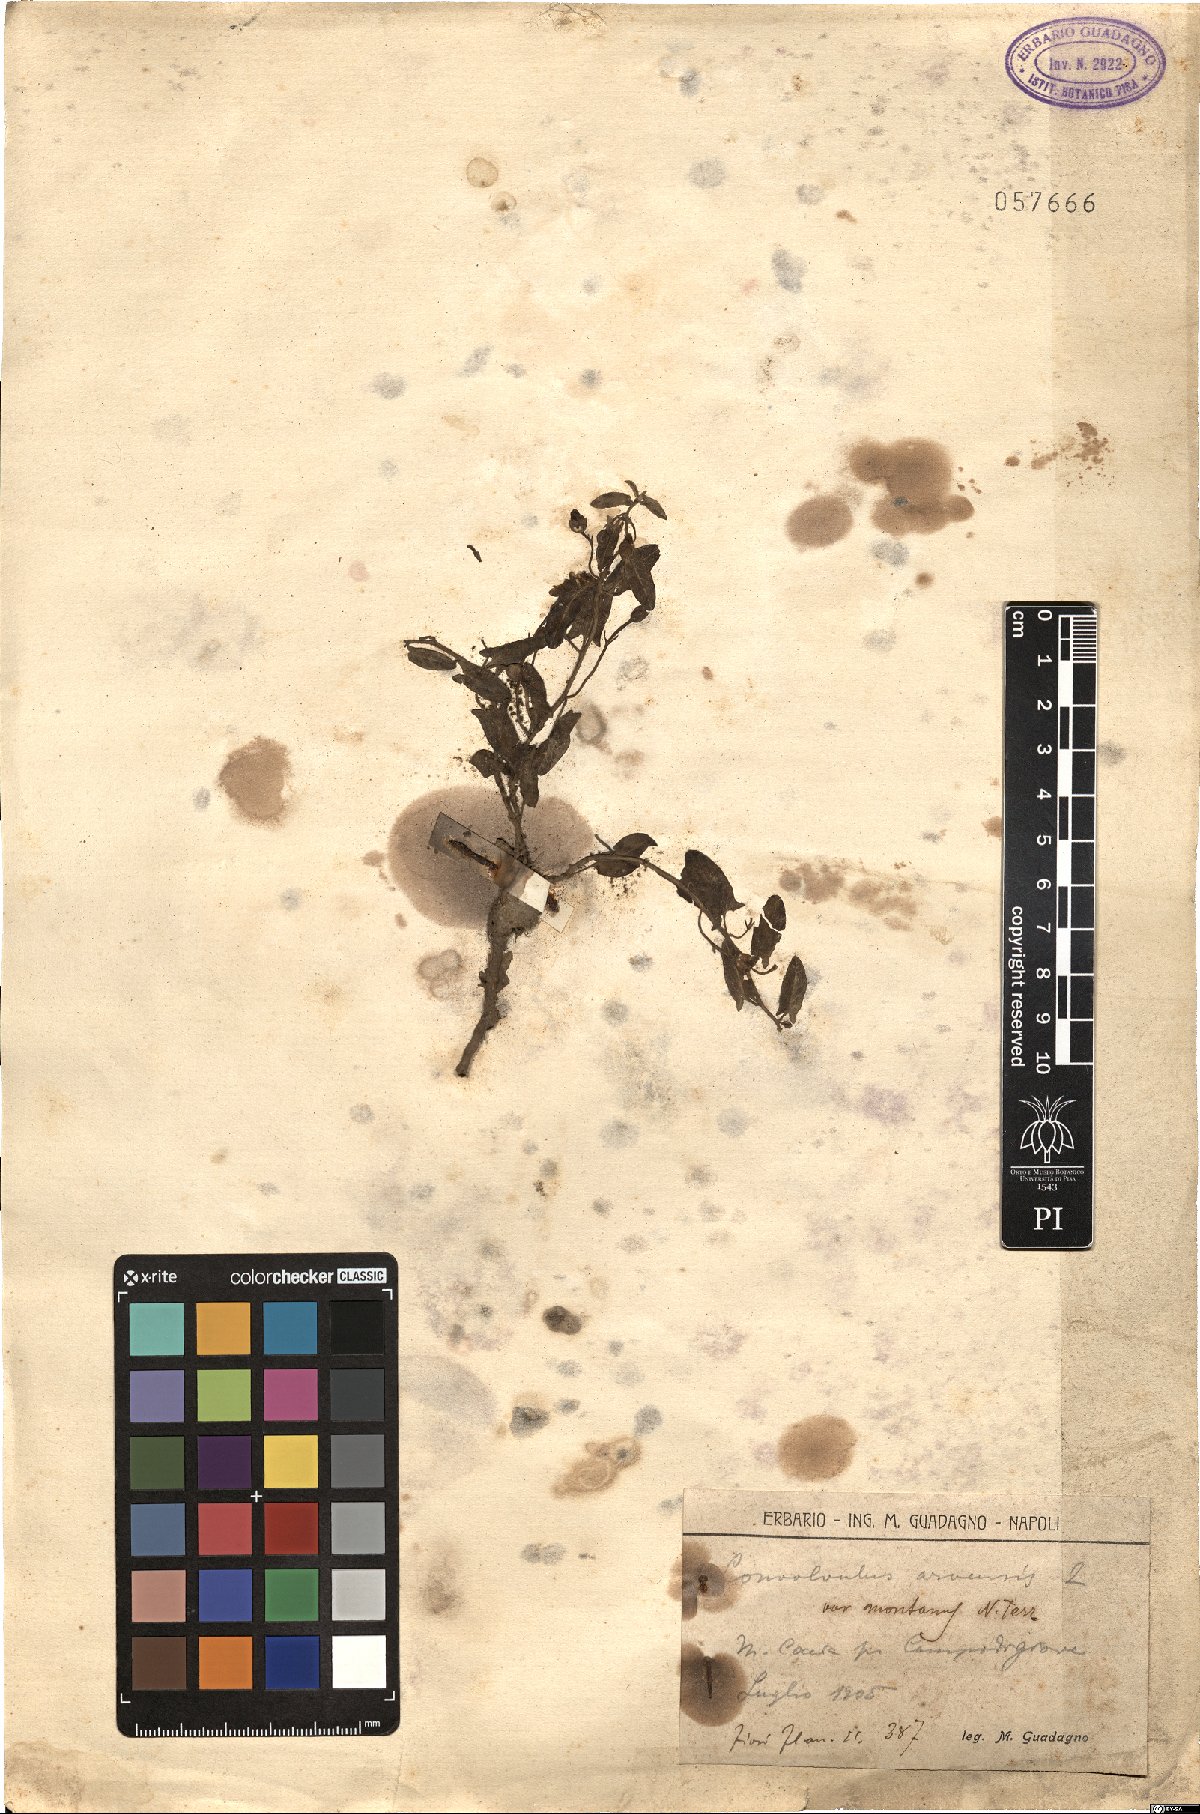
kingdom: Plantae
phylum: Tracheophyta
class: Magnoliopsida
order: Solanales
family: Convolvulaceae
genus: Convolvulus
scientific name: Convolvulus arvensis
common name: Field bindweed
